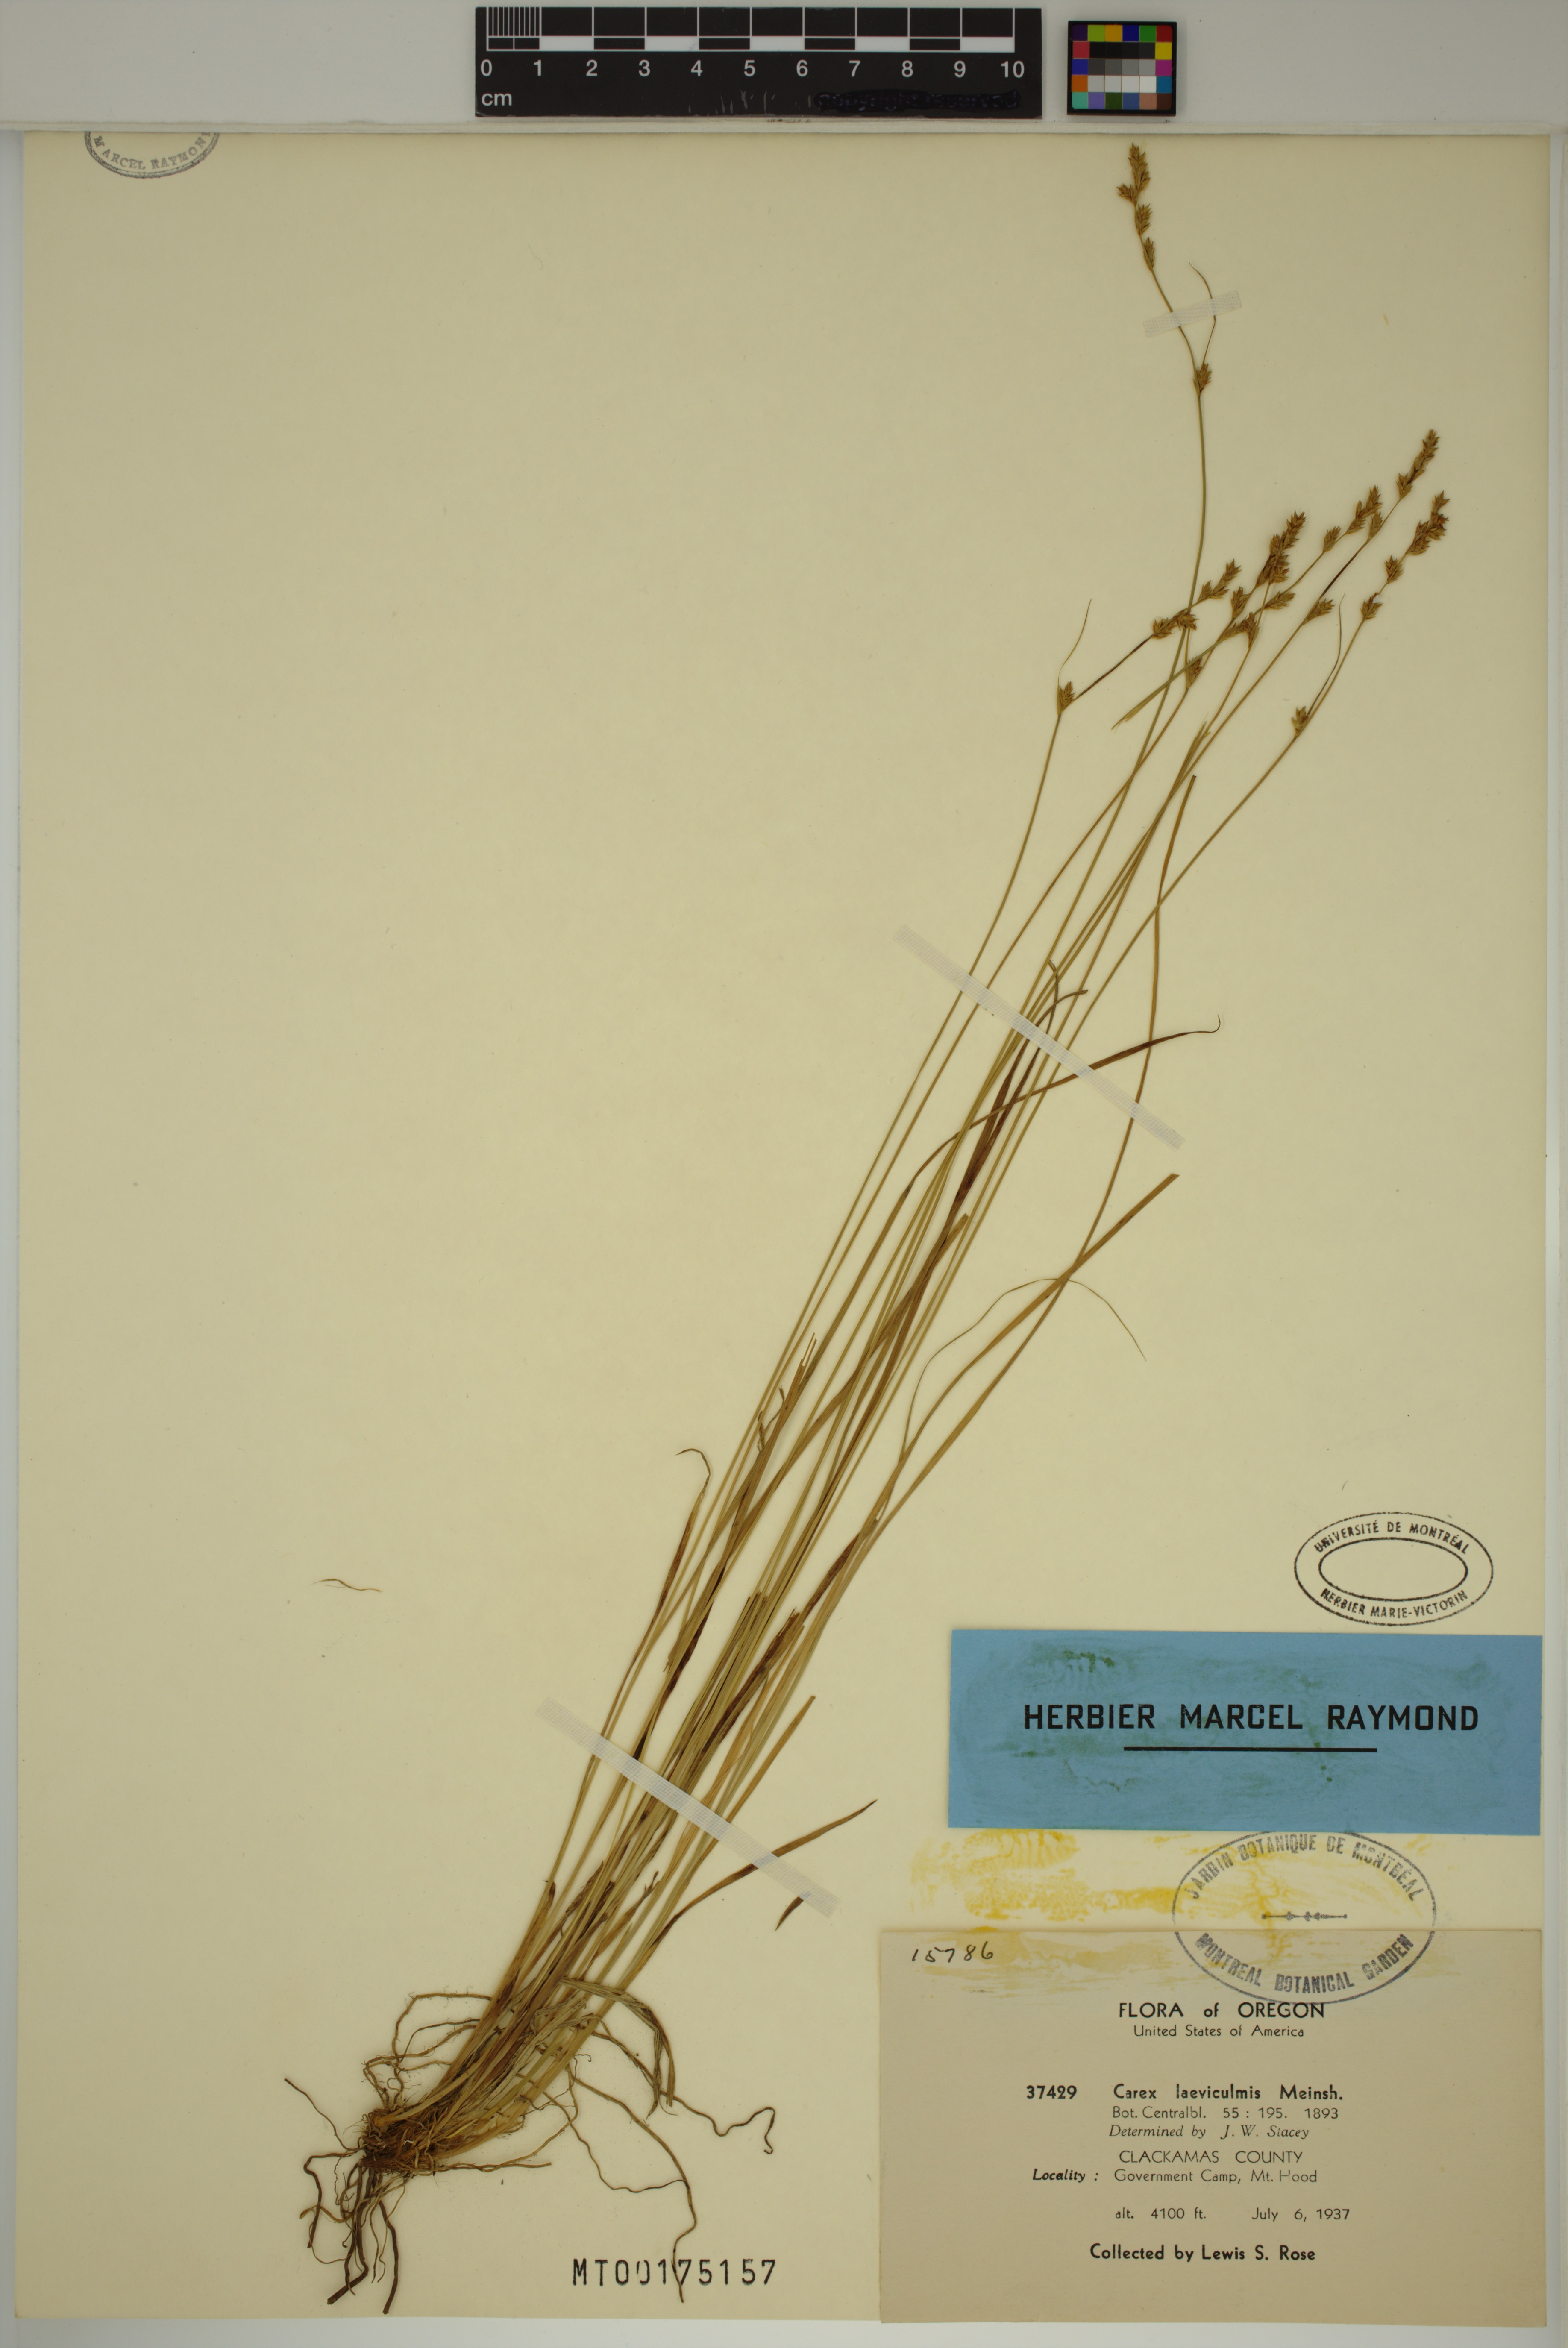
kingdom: Plantae
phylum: Tracheophyta
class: Liliopsida
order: Poales
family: Cyperaceae
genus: Carex
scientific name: Carex laeviculmis
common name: Smooth sedge
